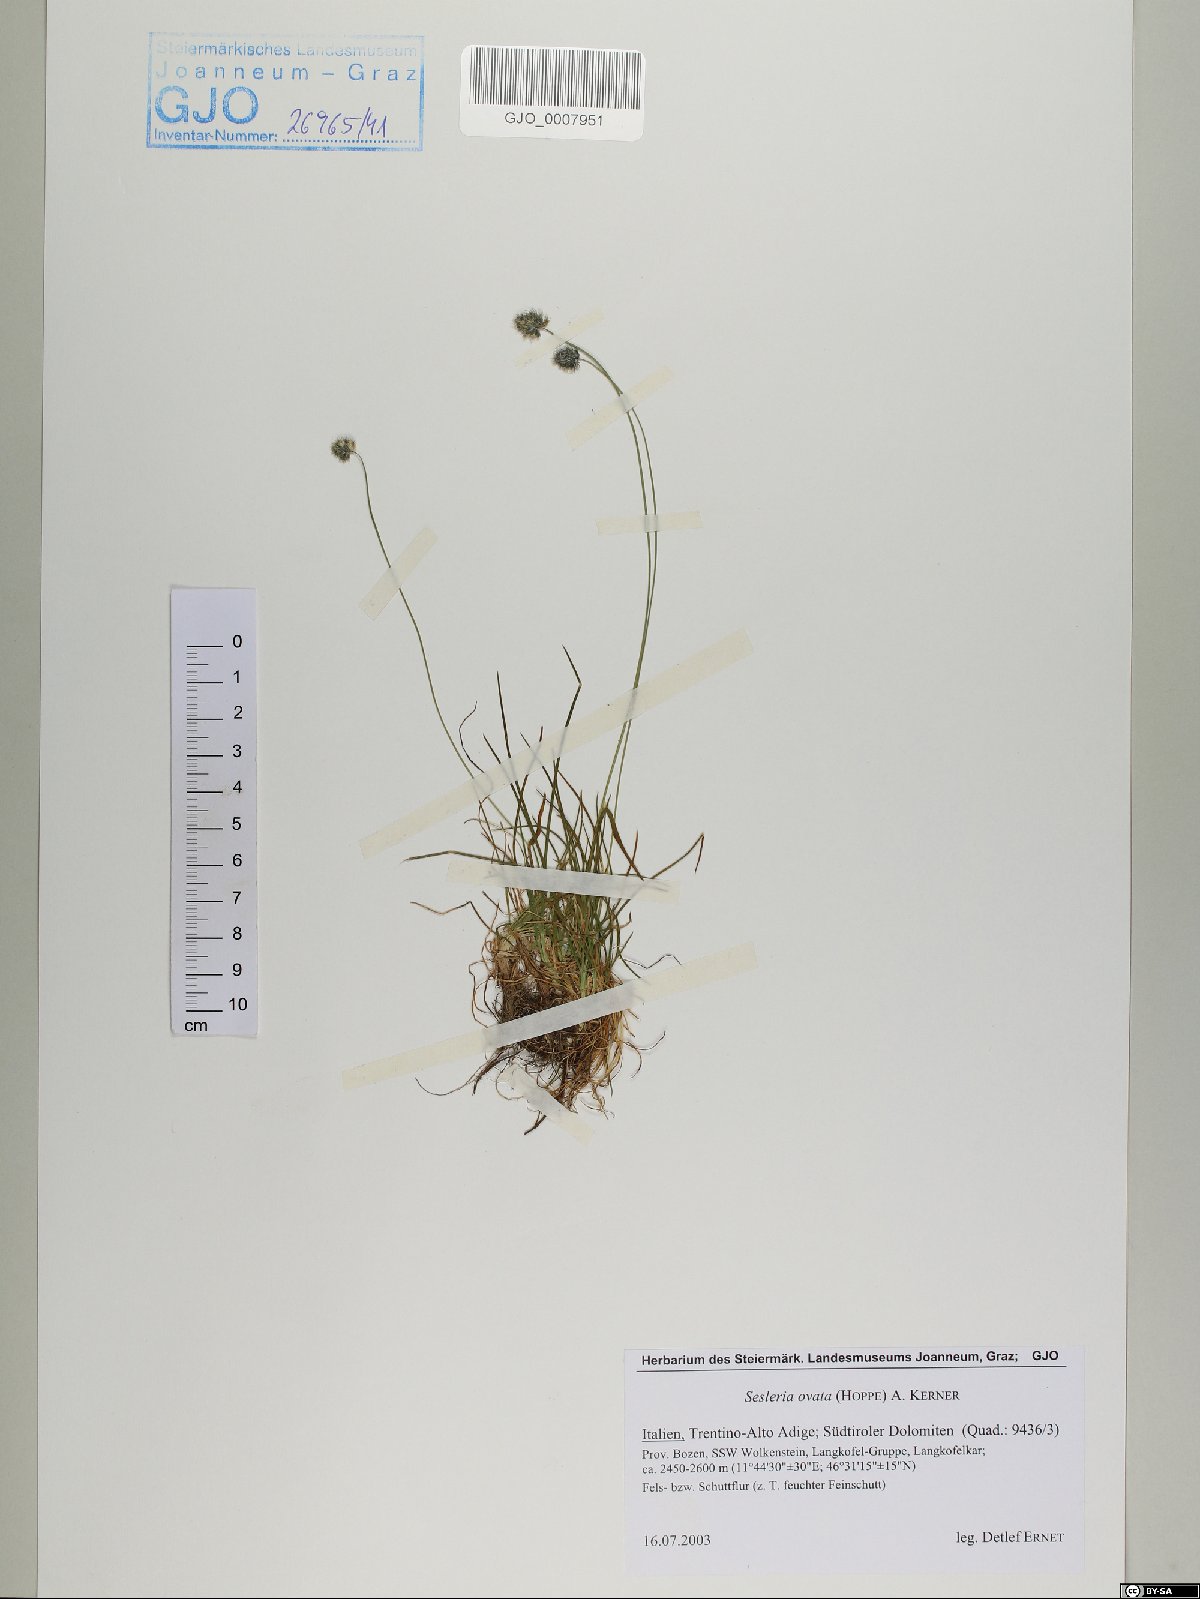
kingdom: Plantae
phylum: Tracheophyta
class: Liliopsida
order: Poales
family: Poaceae
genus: Psilathera
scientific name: Psilathera ovata
